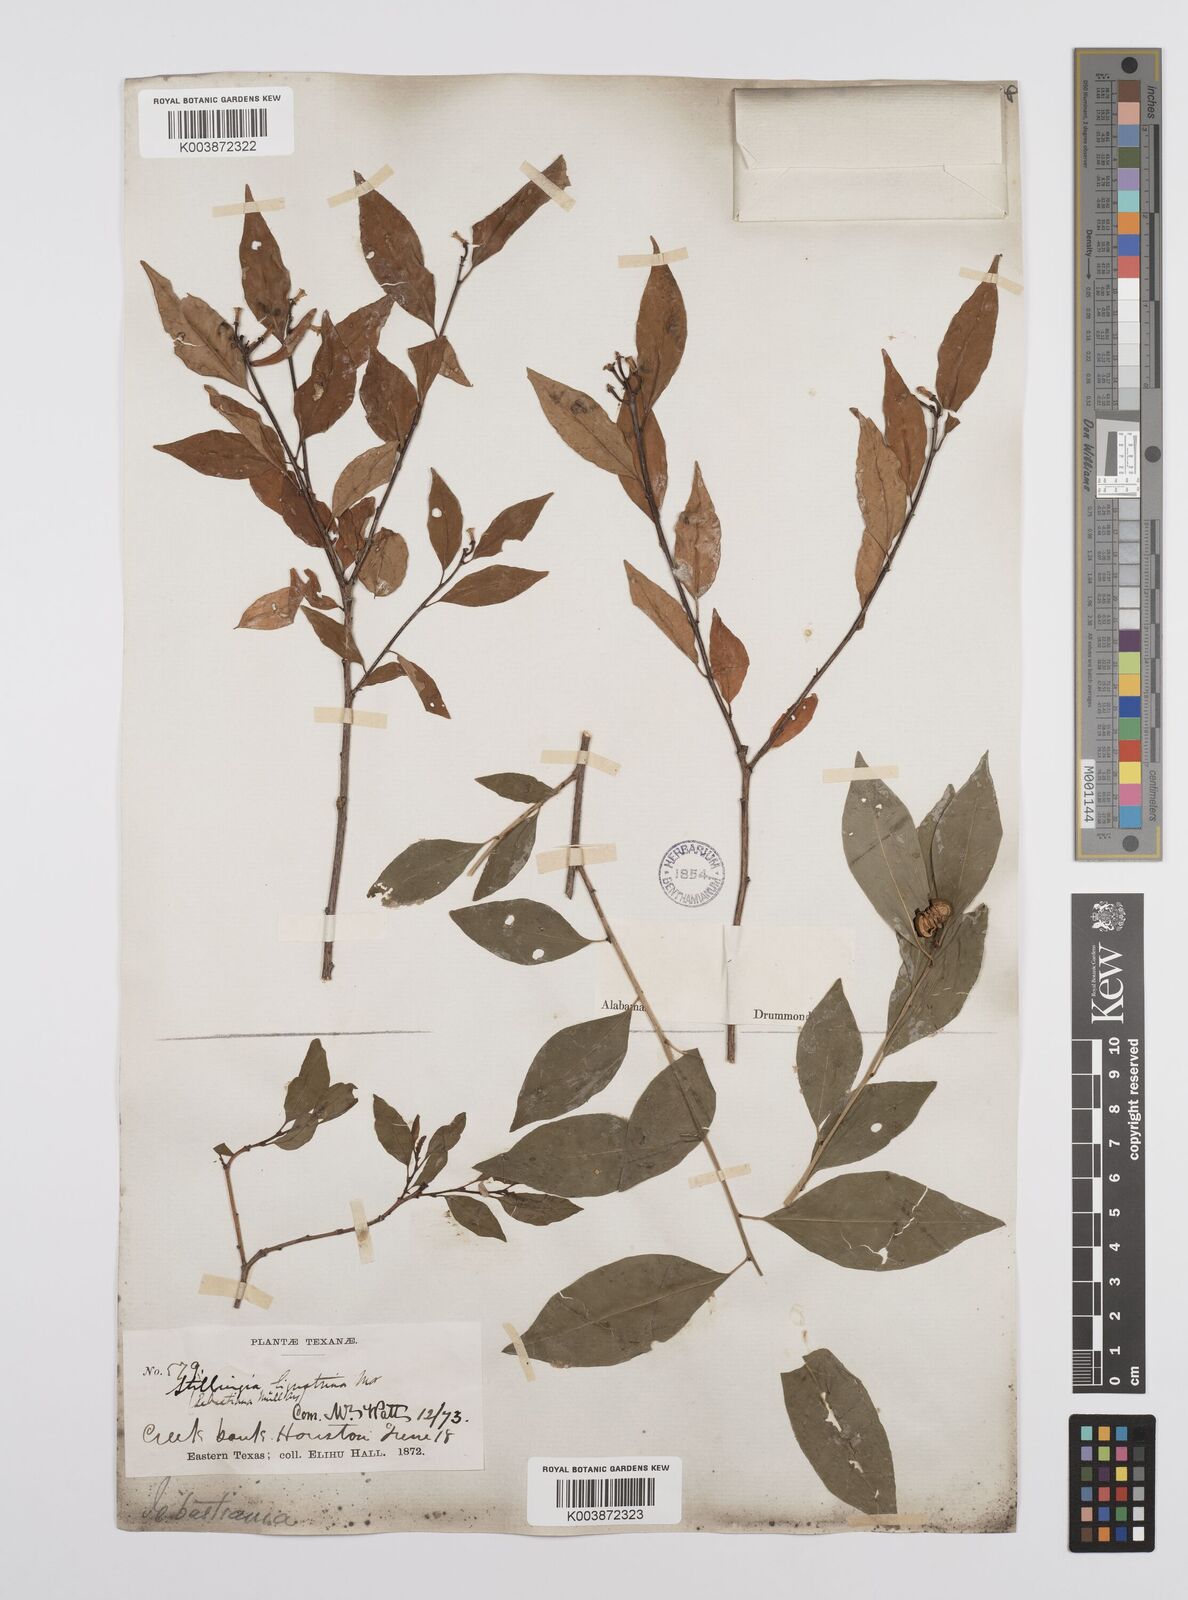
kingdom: Plantae
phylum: Tracheophyta
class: Magnoliopsida
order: Malpighiales
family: Euphorbiaceae
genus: Ditrysinia
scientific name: Ditrysinia fruticosa
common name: Gulf sebastian-bush
